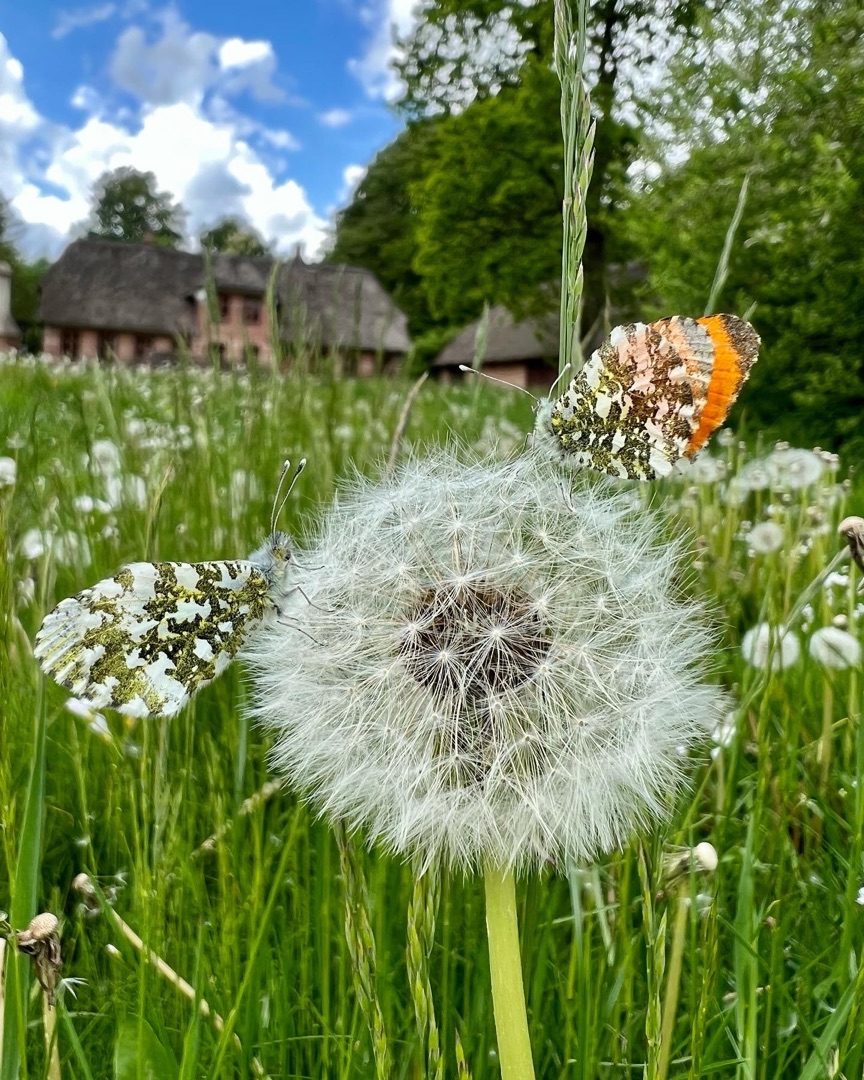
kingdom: Animalia
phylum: Arthropoda
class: Insecta
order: Lepidoptera
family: Pieridae
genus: Anthocharis
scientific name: Anthocharis cardamines
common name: Aurora
